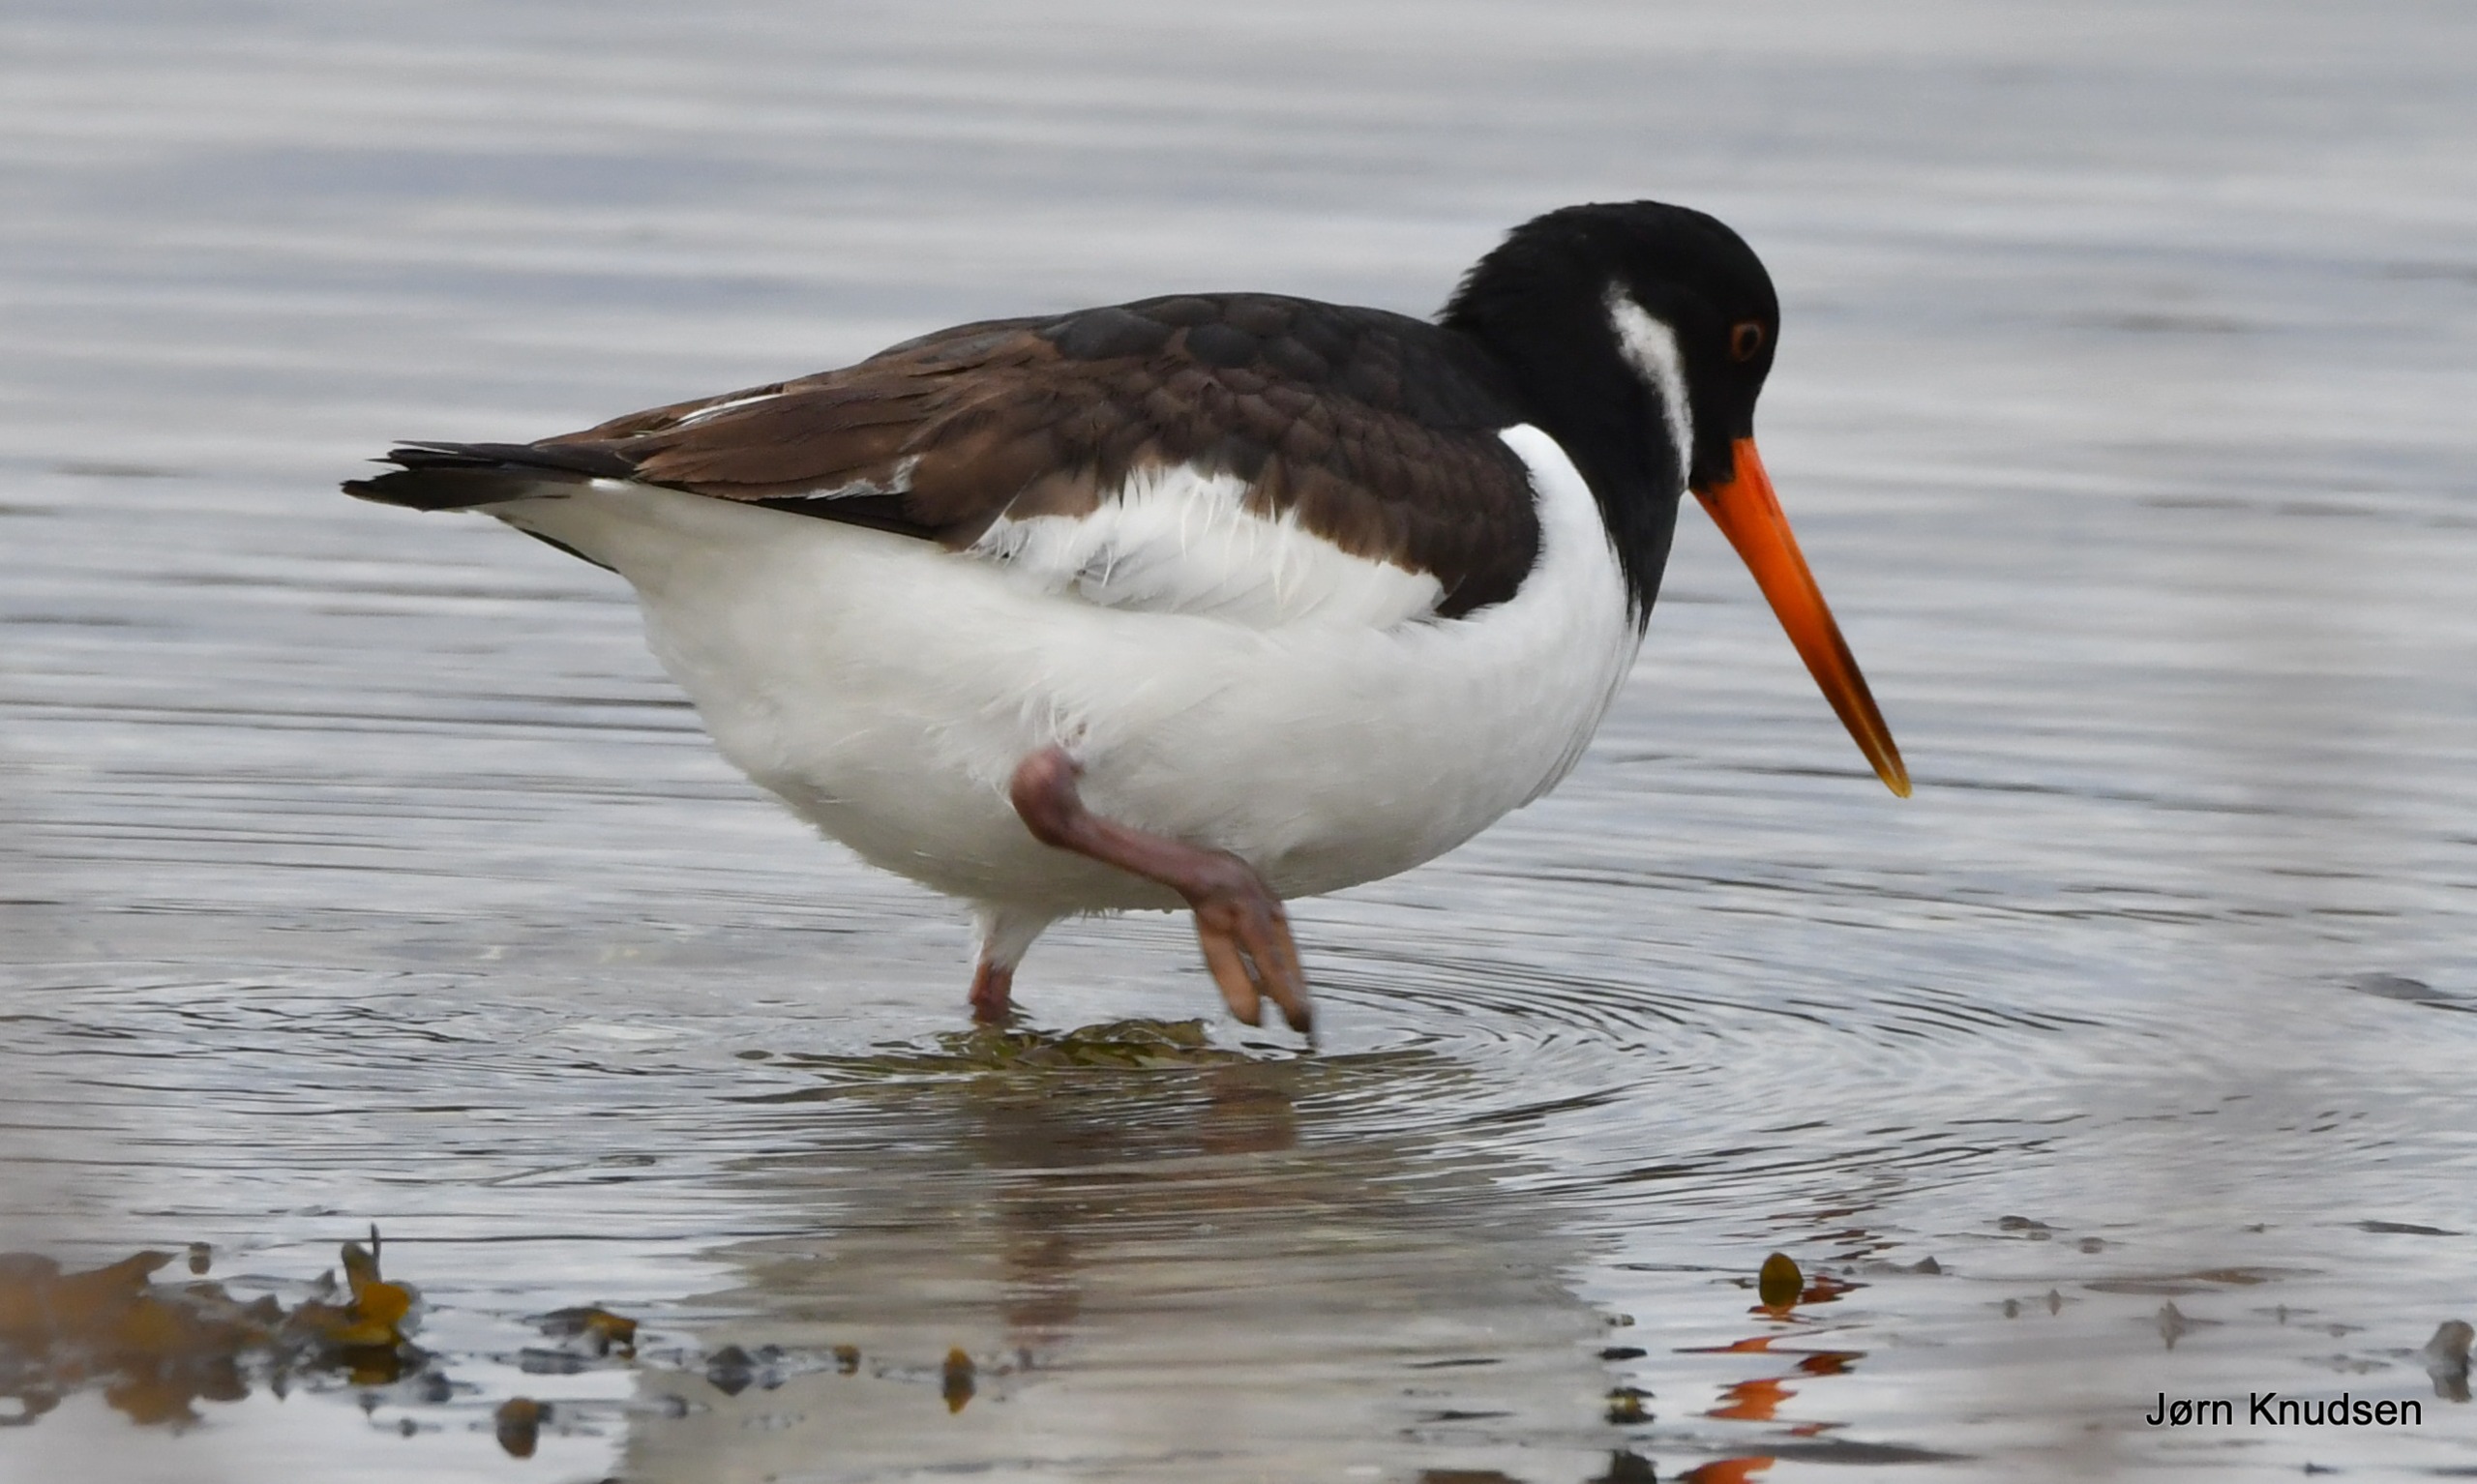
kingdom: Animalia
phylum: Chordata
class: Aves
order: Charadriiformes
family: Haematopodidae
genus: Haematopus
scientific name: Haematopus ostralegus
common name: Strandskade
